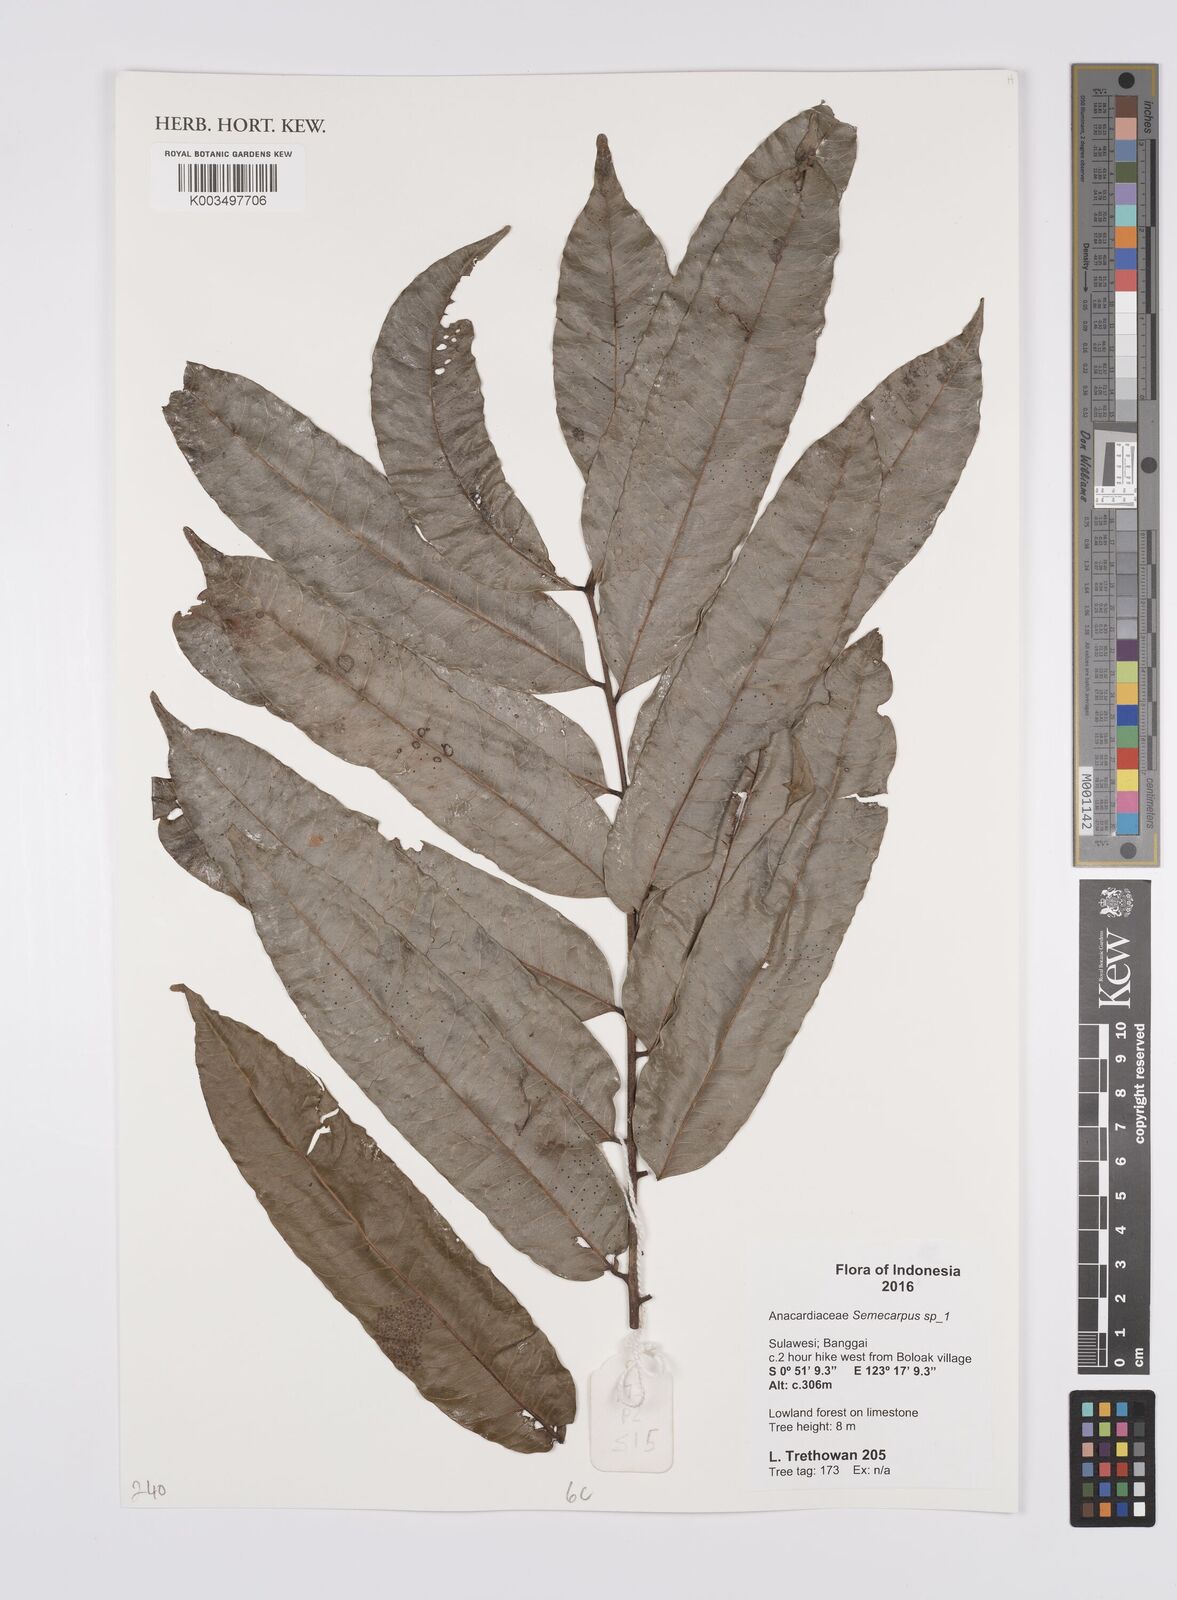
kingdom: Plantae
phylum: Tracheophyta
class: Magnoliopsida
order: Sapindales
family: Anacardiaceae
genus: Semecarpus
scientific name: Semecarpus
